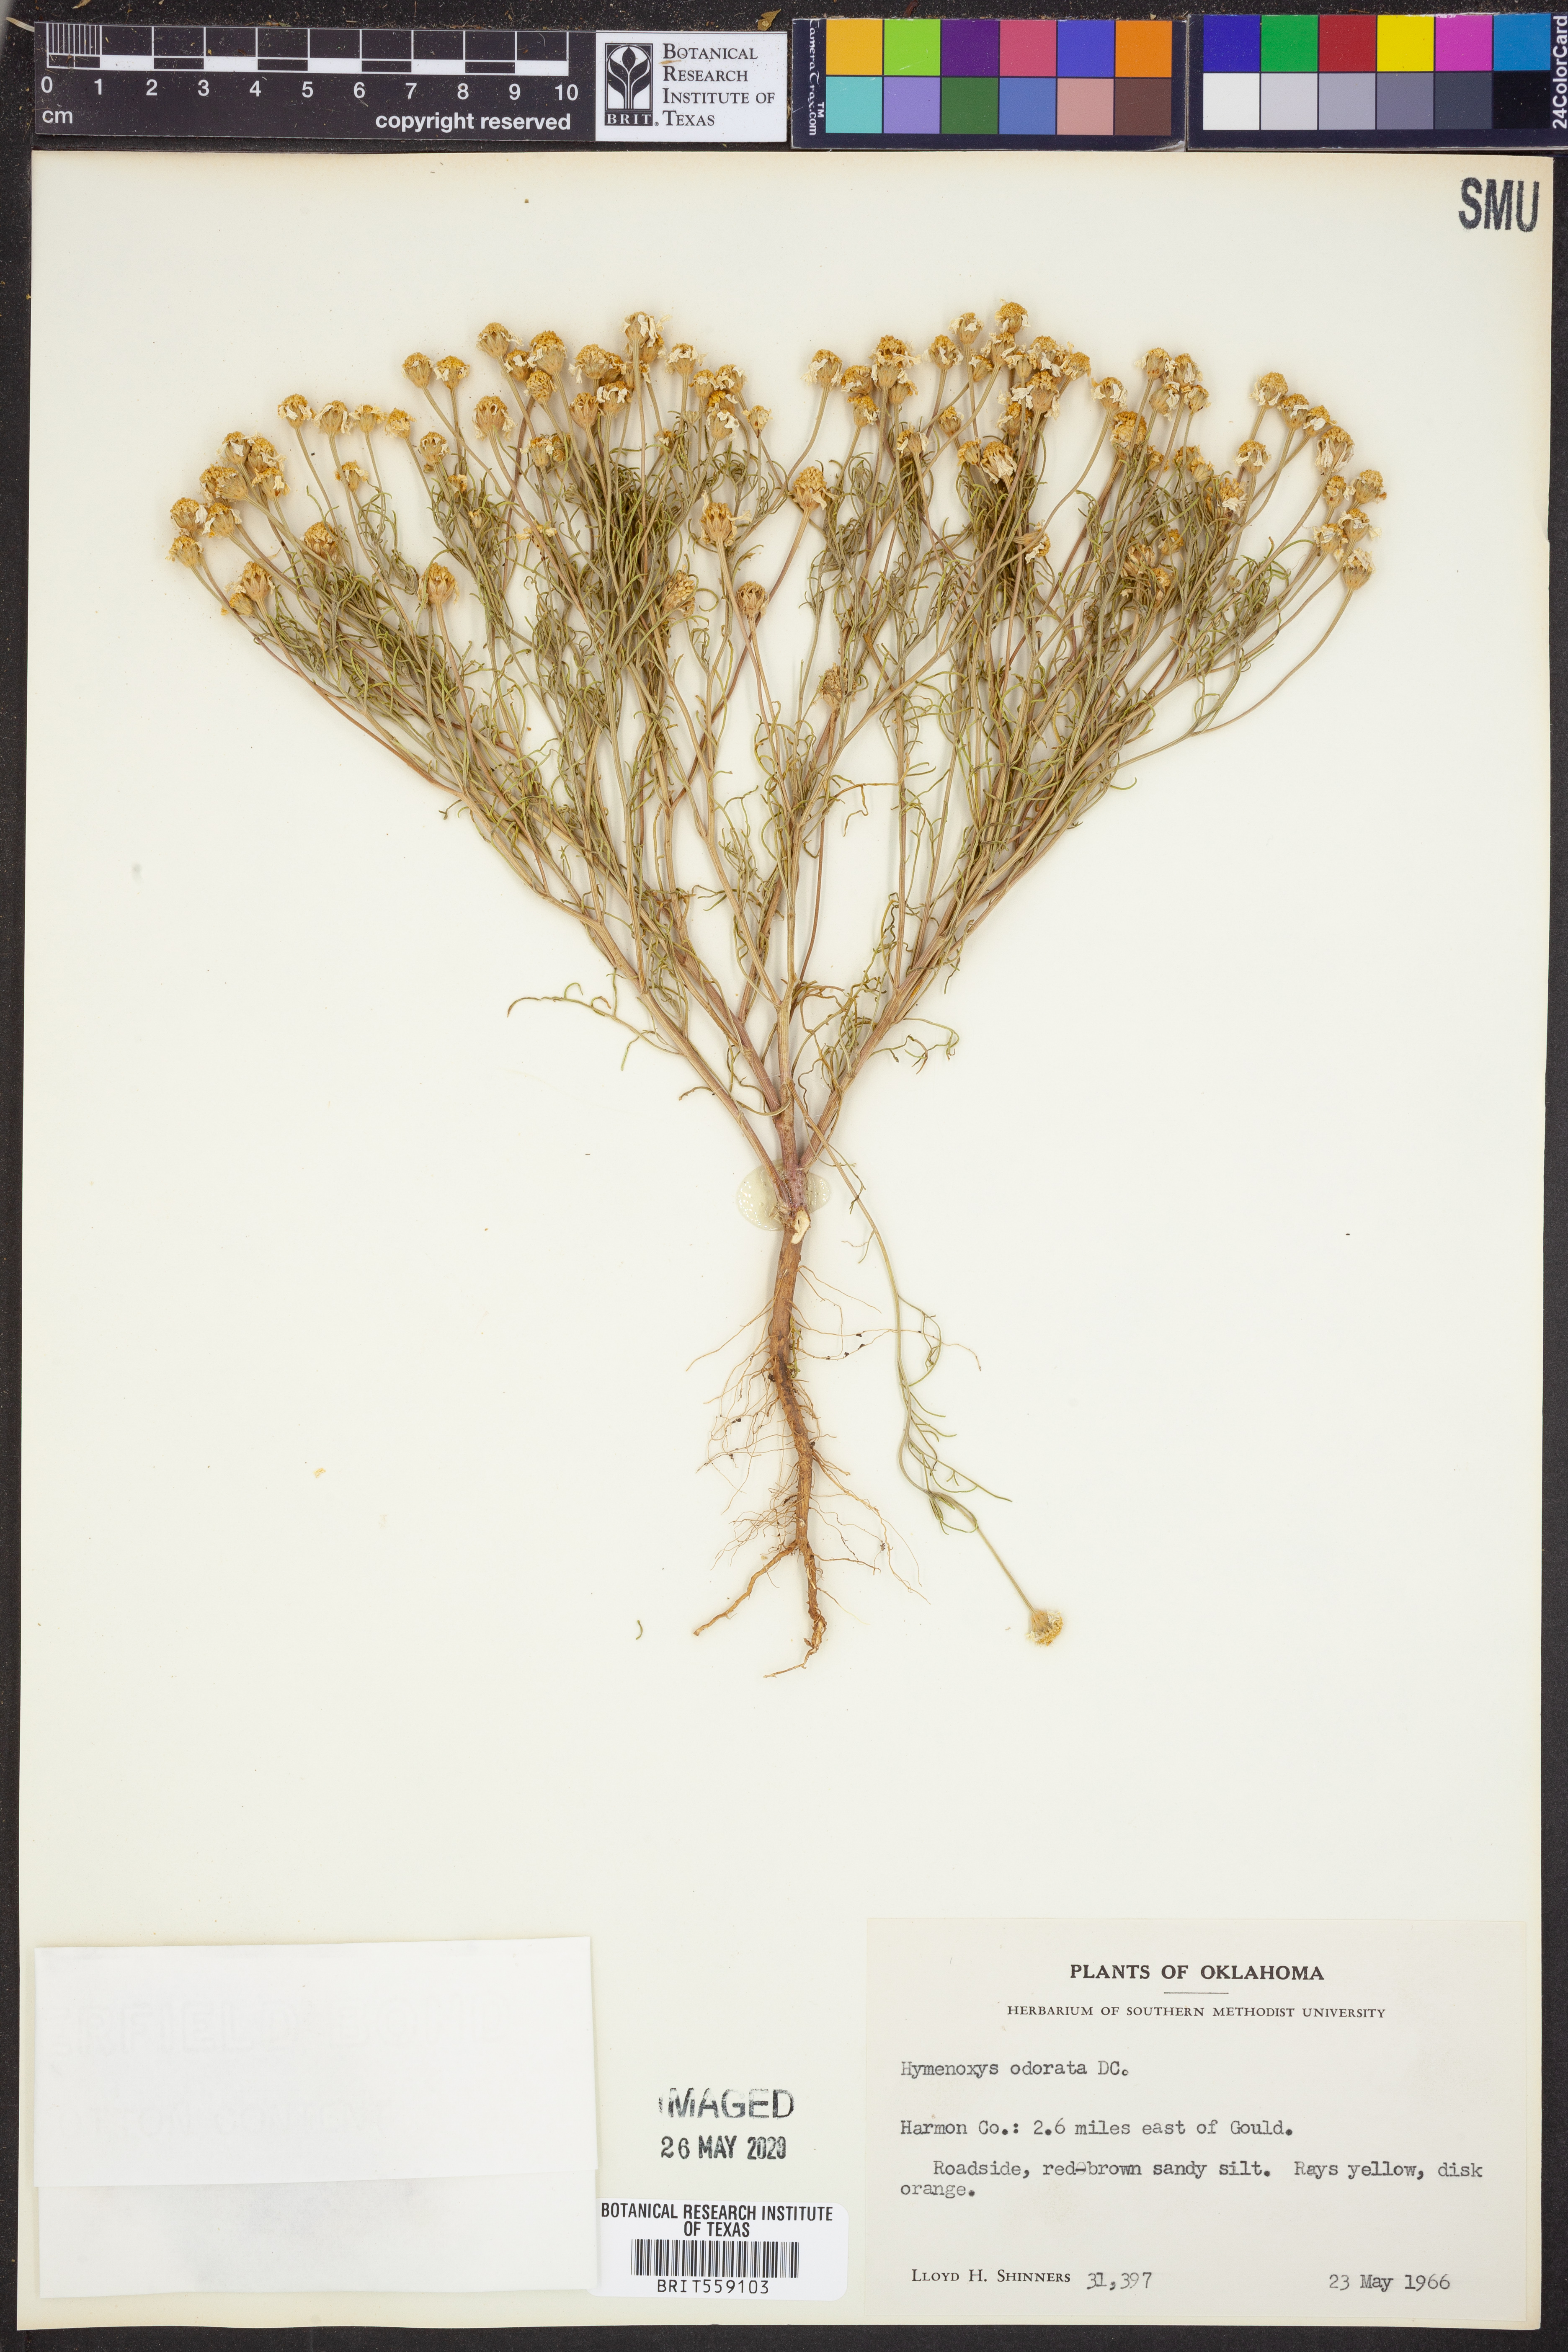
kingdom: Plantae
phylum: Tracheophyta
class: Magnoliopsida
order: Asterales
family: Asteraceae
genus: Hymenoxys
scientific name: Hymenoxys odorata
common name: Bitter rubberweed
